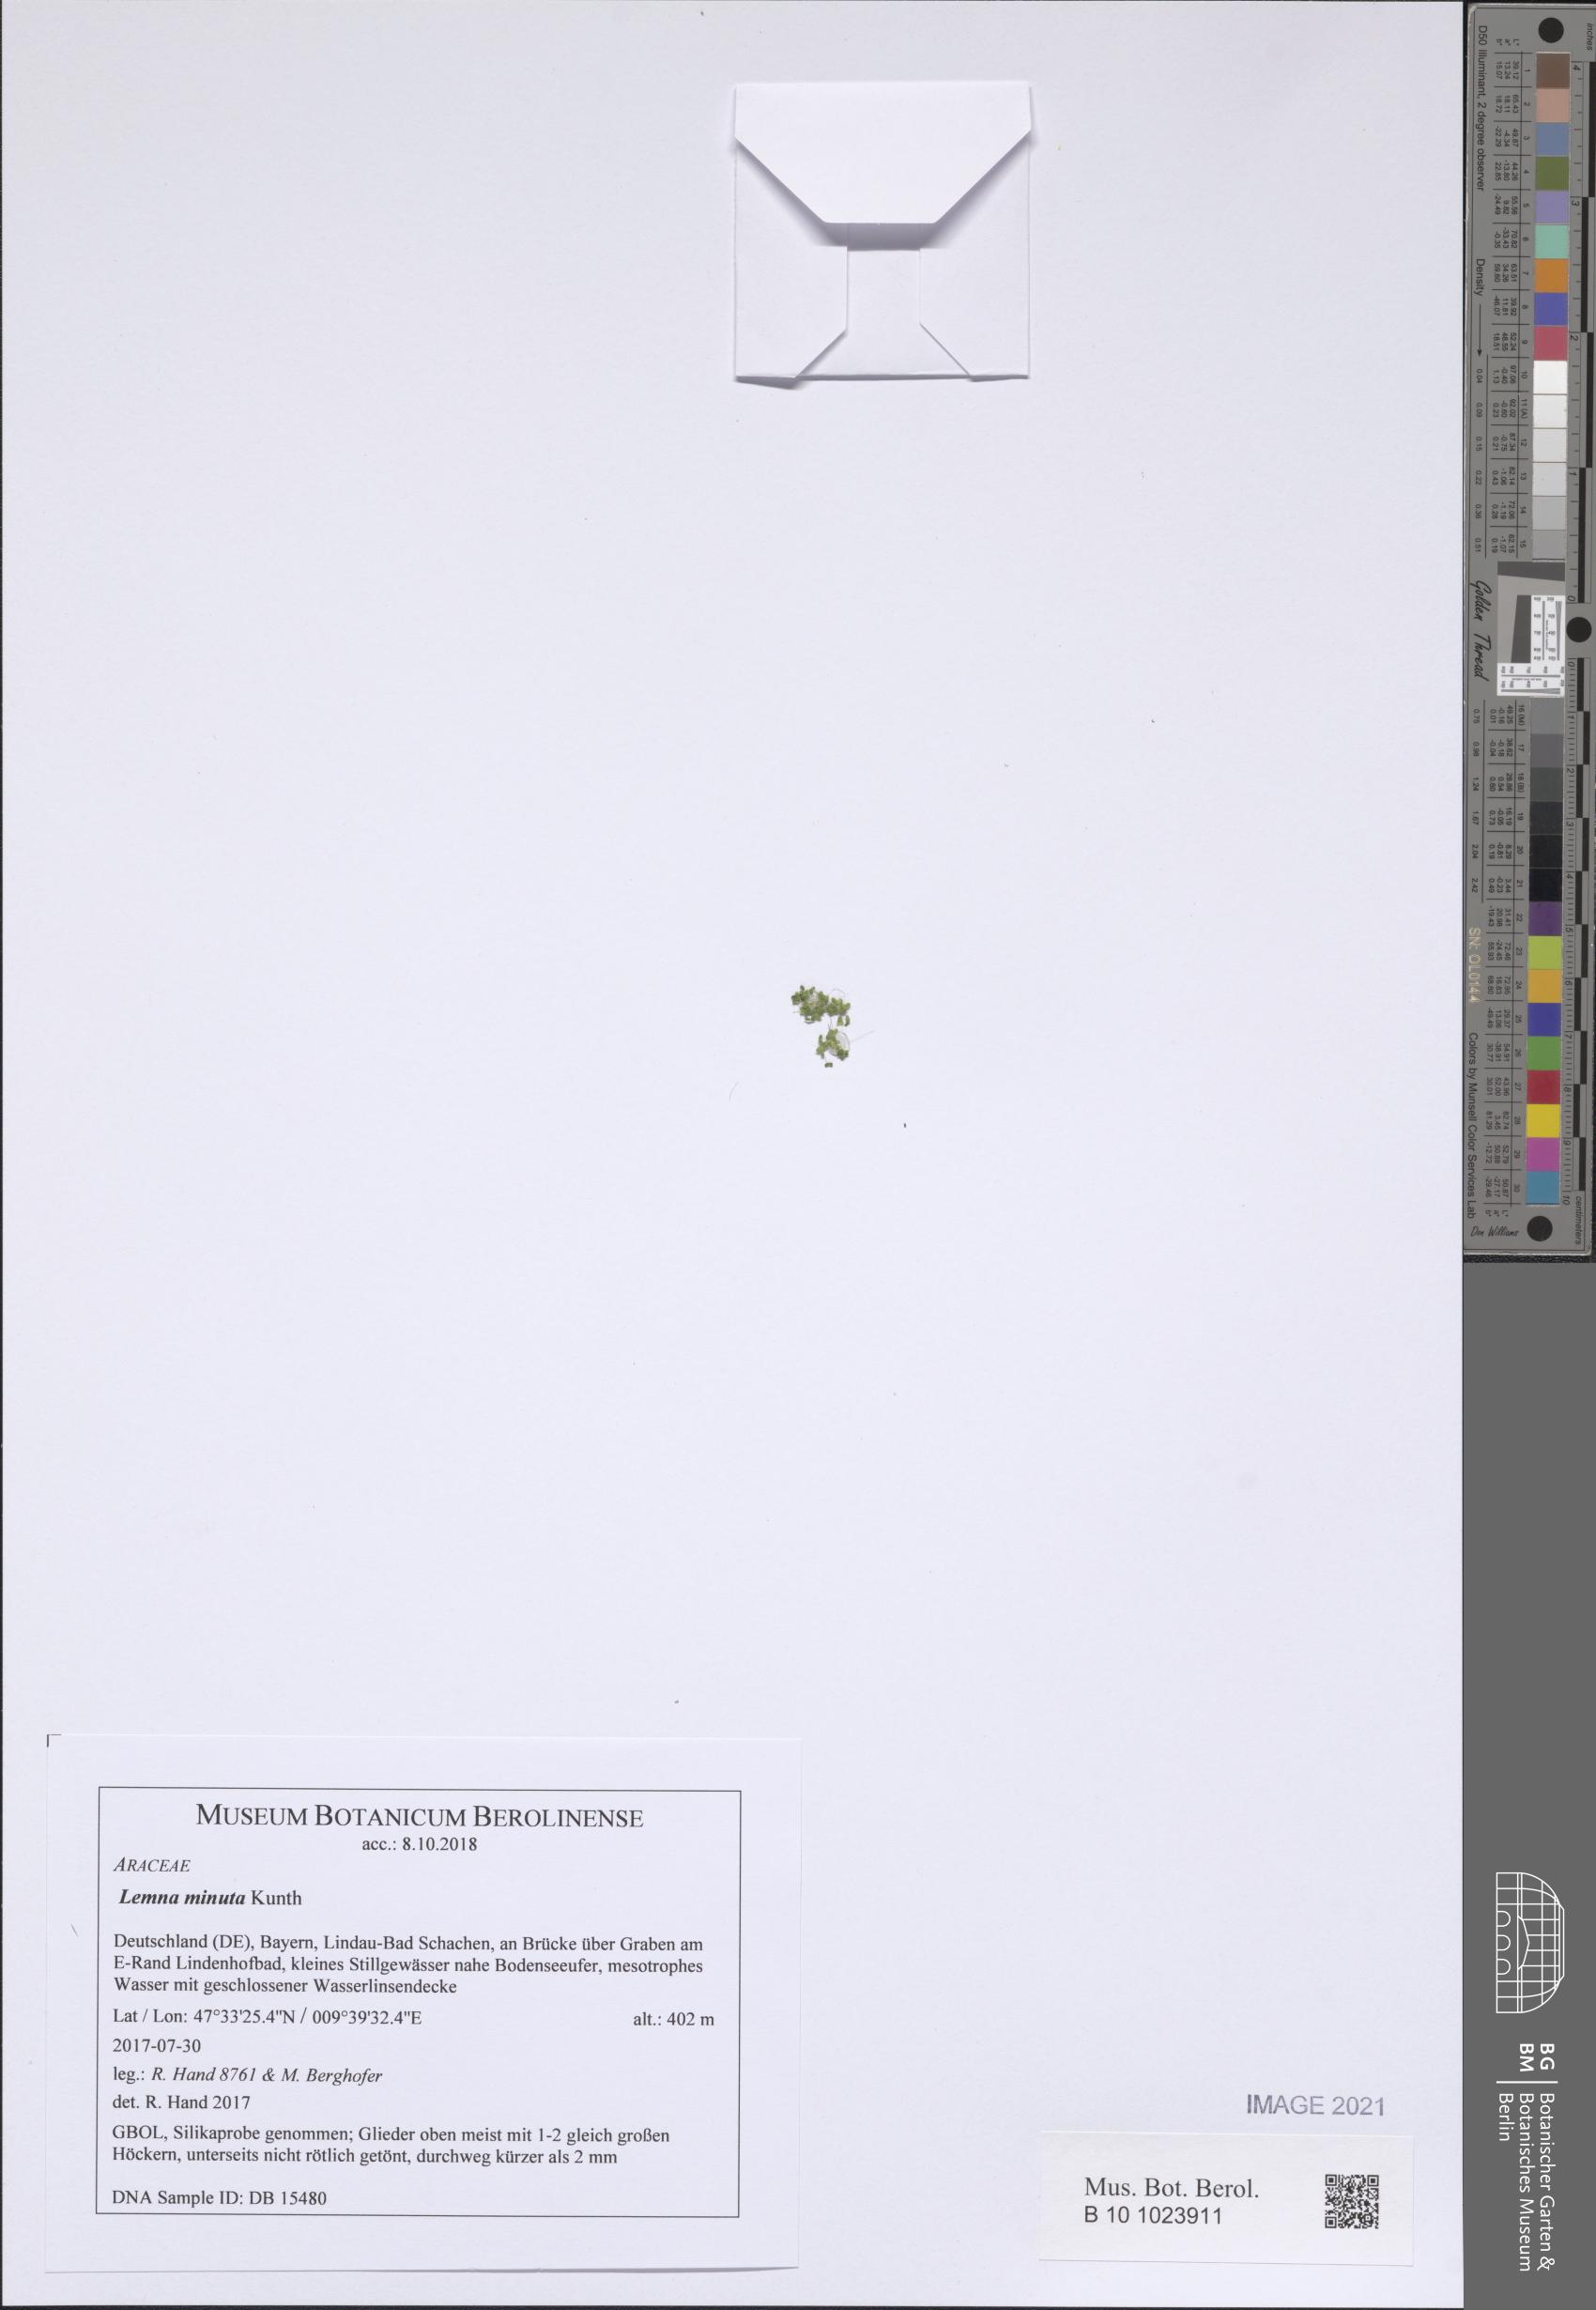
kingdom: Plantae
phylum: Tracheophyta
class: Liliopsida
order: Alismatales
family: Araceae
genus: Lemna
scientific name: Lemna minuta
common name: Least duckweed
